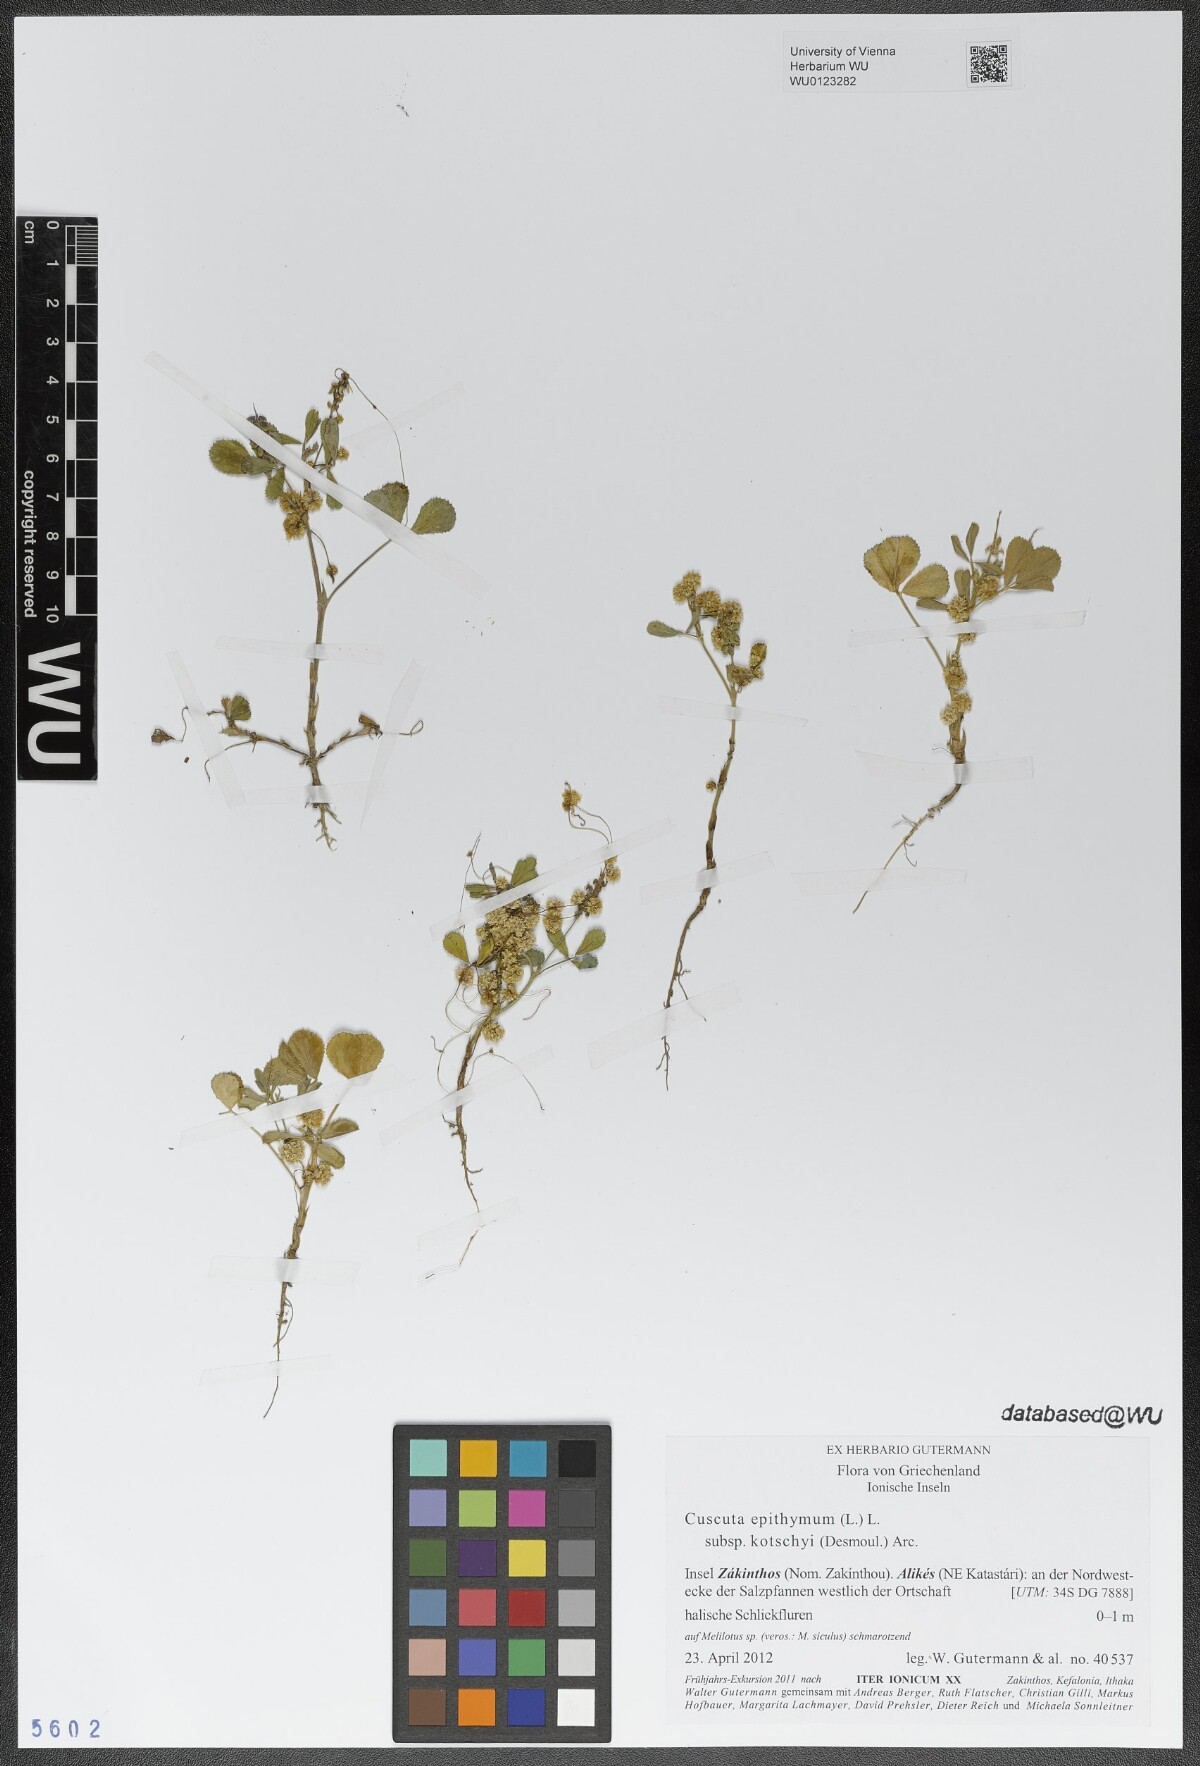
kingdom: Plantae
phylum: Tracheophyta
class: Magnoliopsida
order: Solanales
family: Convolvulaceae
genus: Cuscuta
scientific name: Cuscuta epithymum
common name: Clover dodder
